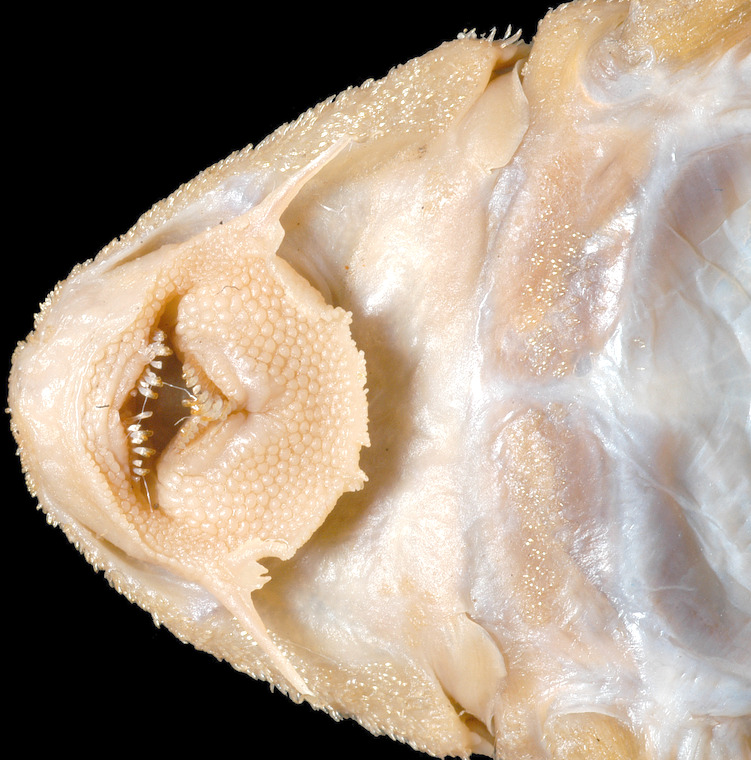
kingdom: Animalia
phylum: Chordata
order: Siluriformes
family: Loricariidae
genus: Peckoltia
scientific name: Peckoltia vermiculata
